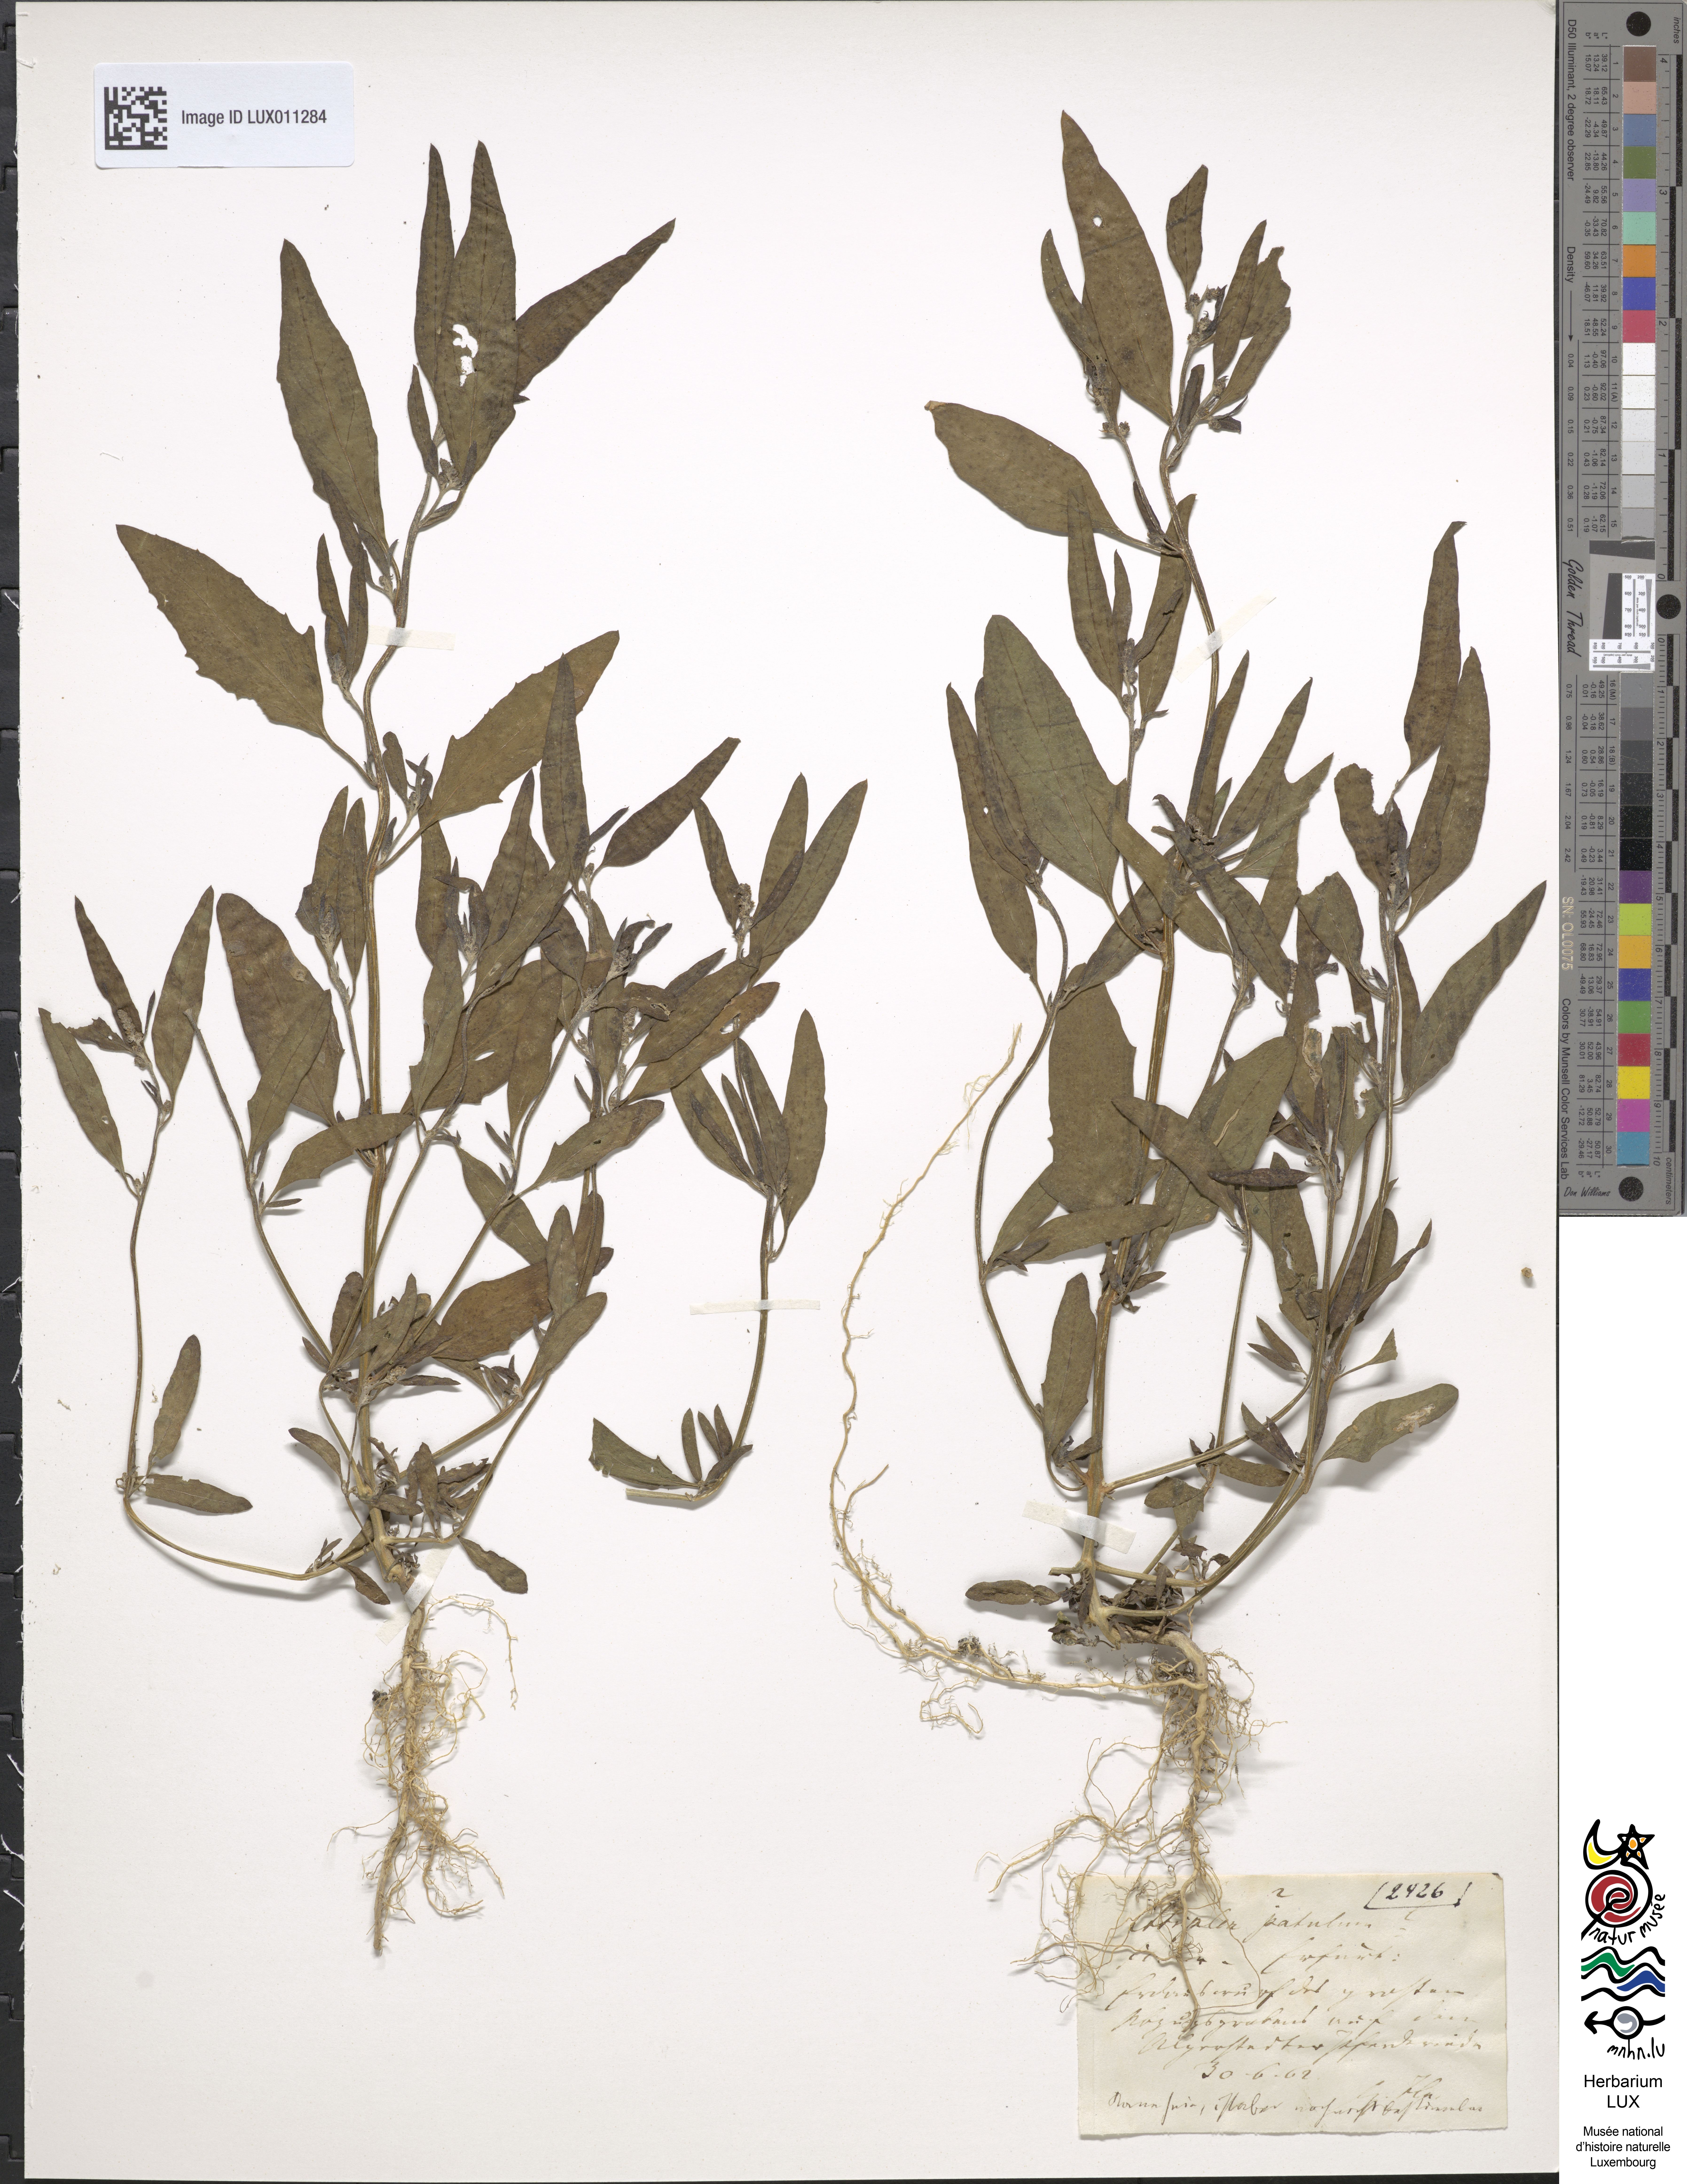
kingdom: Plantae
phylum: Tracheophyta
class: Magnoliopsida
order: Caryophyllales
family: Amaranthaceae
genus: Atriplex
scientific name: Atriplex patula
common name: Common orache
